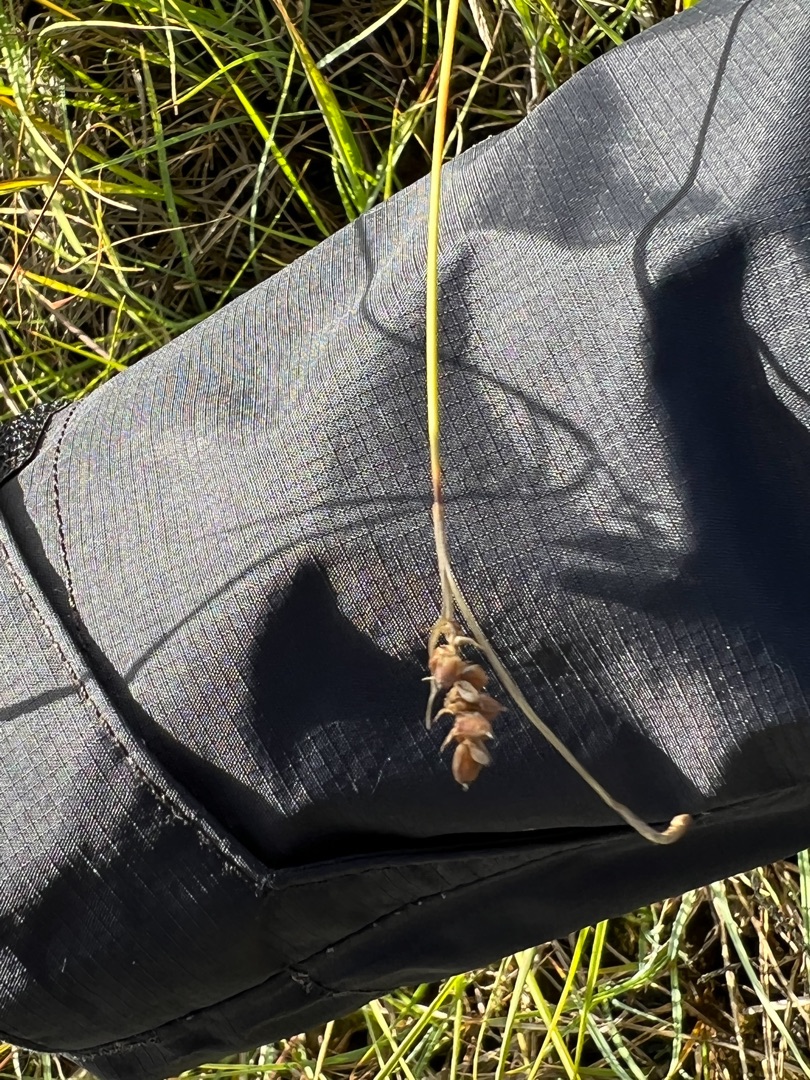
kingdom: Plantae
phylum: Tracheophyta
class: Liliopsida
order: Poales
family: Cyperaceae
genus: Carex
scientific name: Carex panicea
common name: Hirse-star
